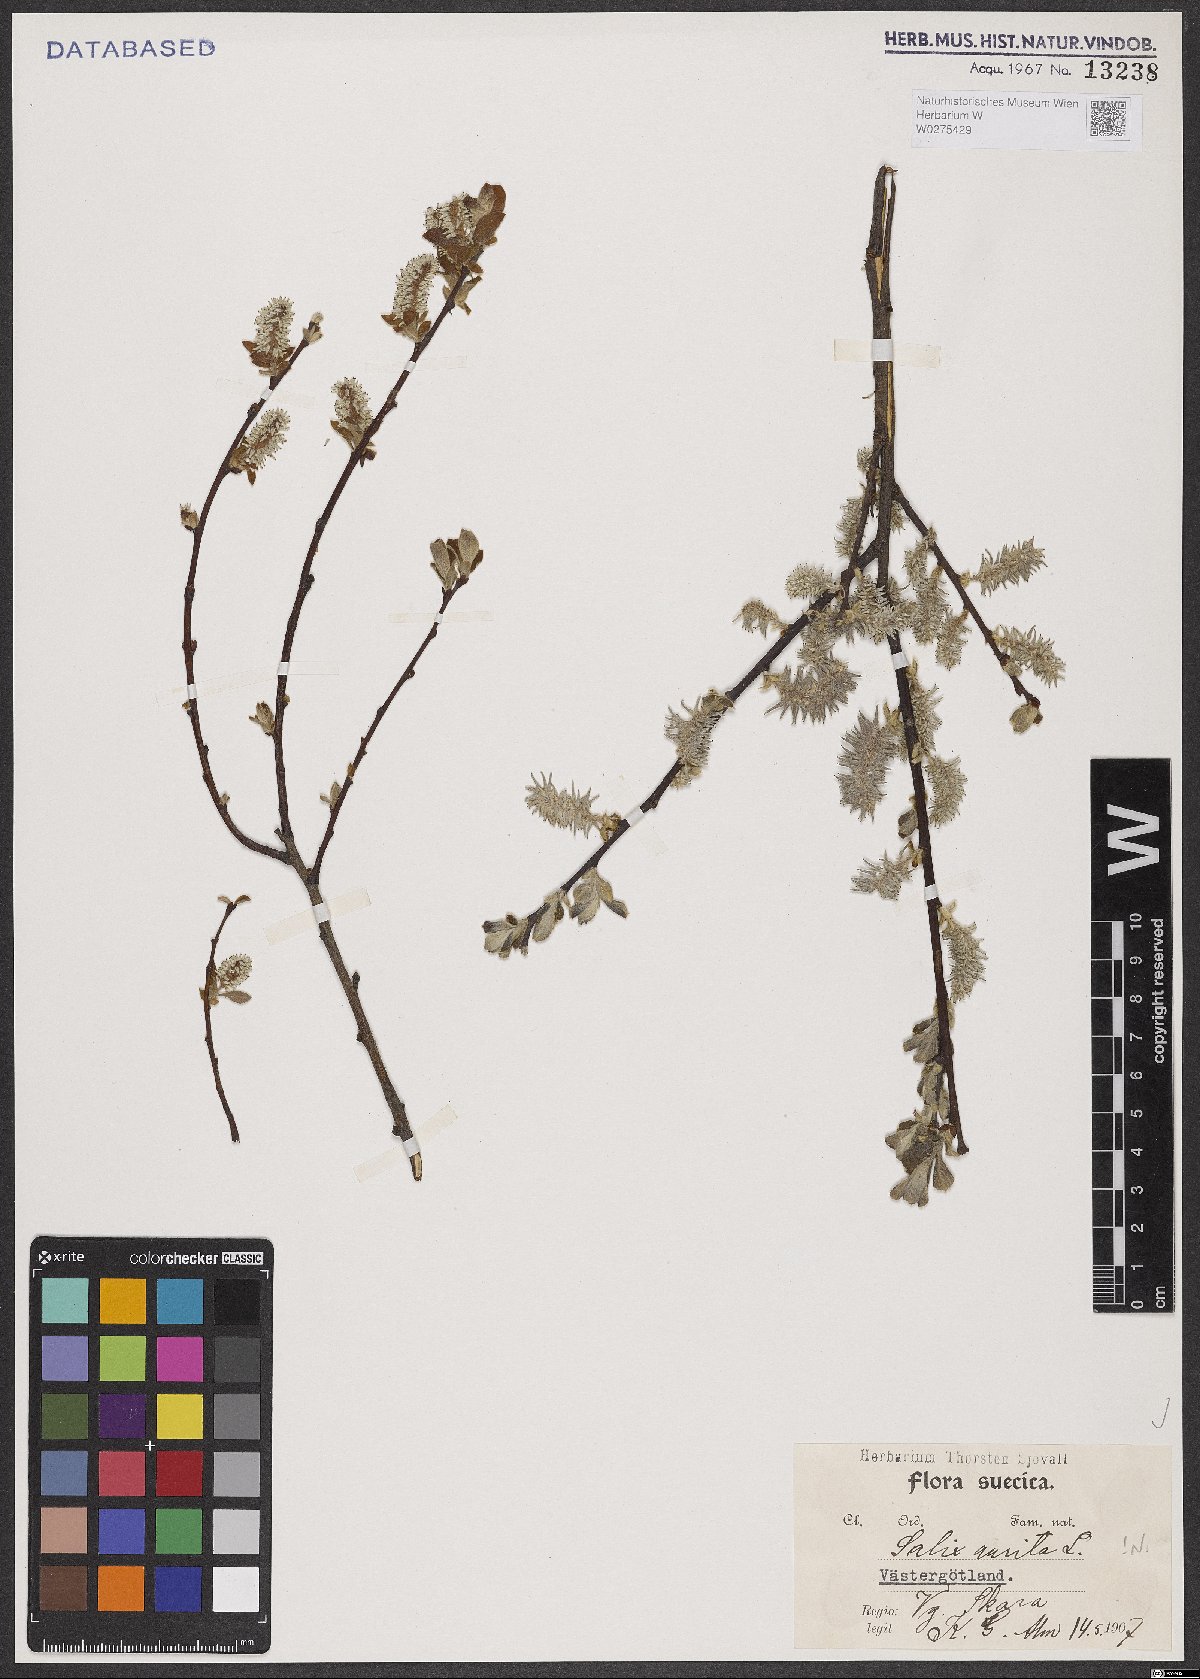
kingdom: Plantae
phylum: Tracheophyta
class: Magnoliopsida
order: Malpighiales
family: Salicaceae
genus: Salix
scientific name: Salix aurita
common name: Eared willow
